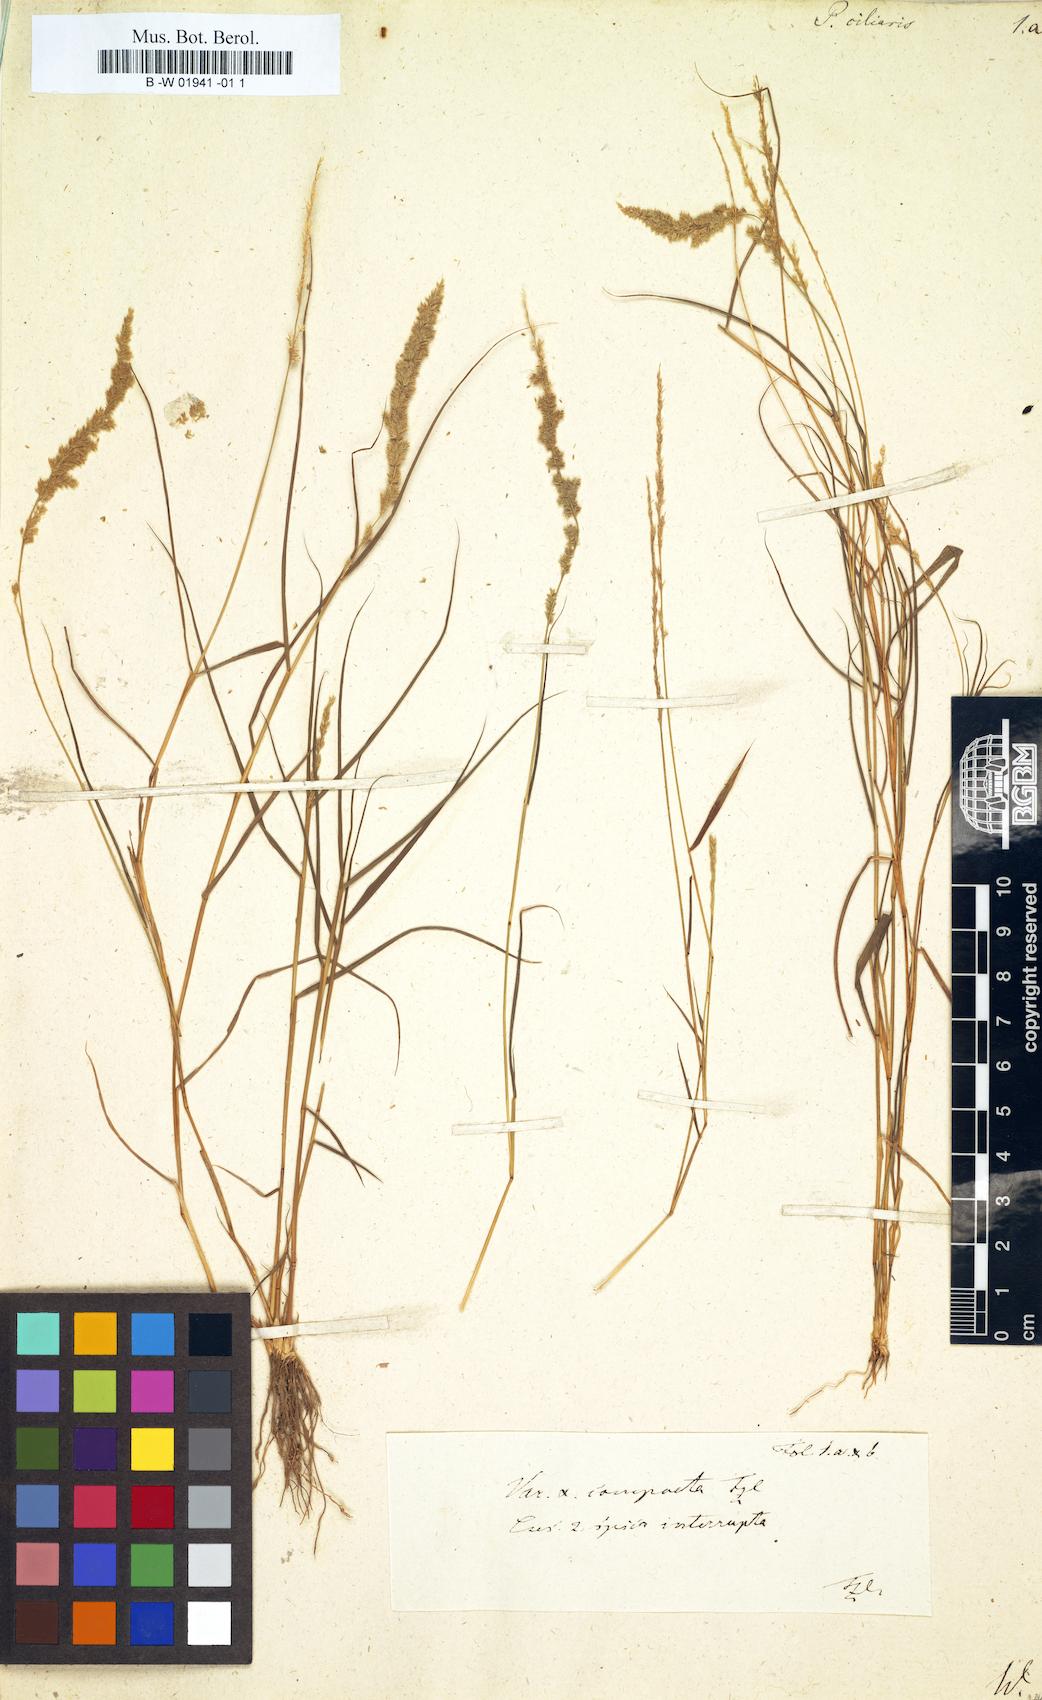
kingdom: Plantae
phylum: Tracheophyta
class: Liliopsida
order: Poales
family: Poaceae
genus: Poa
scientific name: Poa ciliaris
